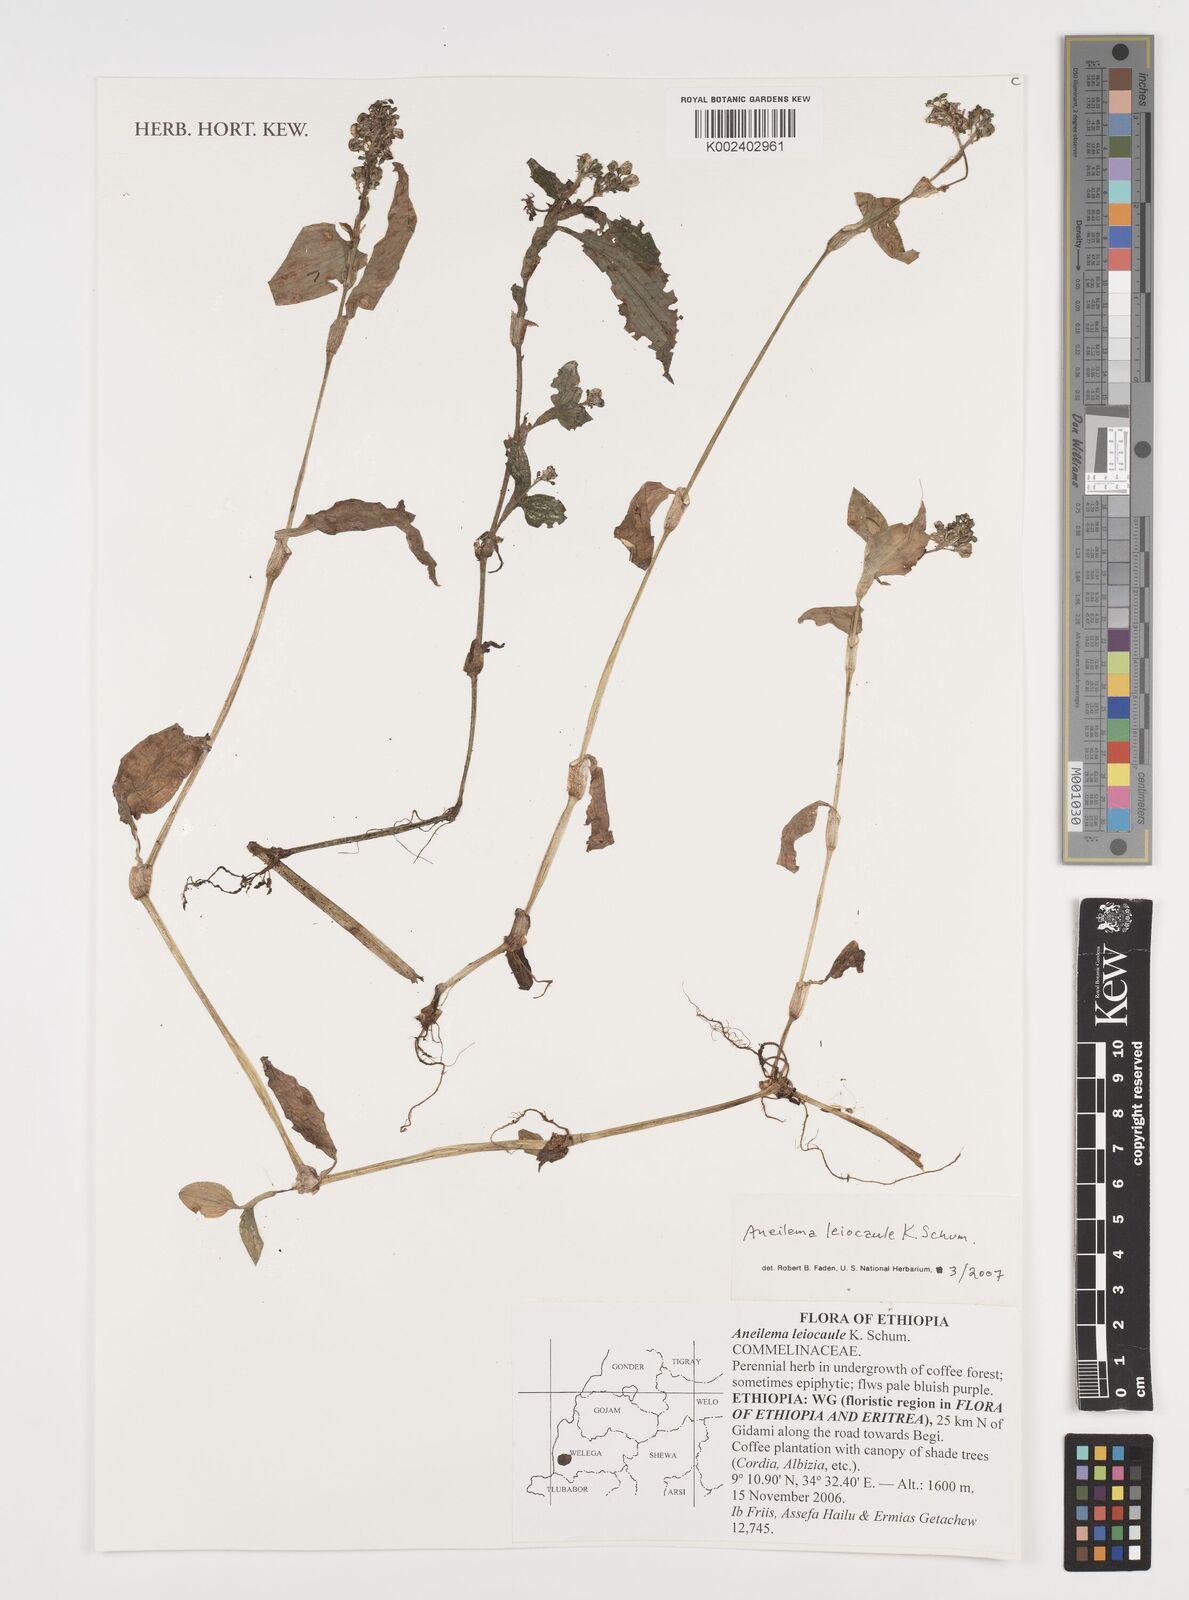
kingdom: Plantae
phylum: Tracheophyta
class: Liliopsida
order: Commelinales
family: Commelinaceae
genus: Aneilema
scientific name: Aneilema leiocaule
